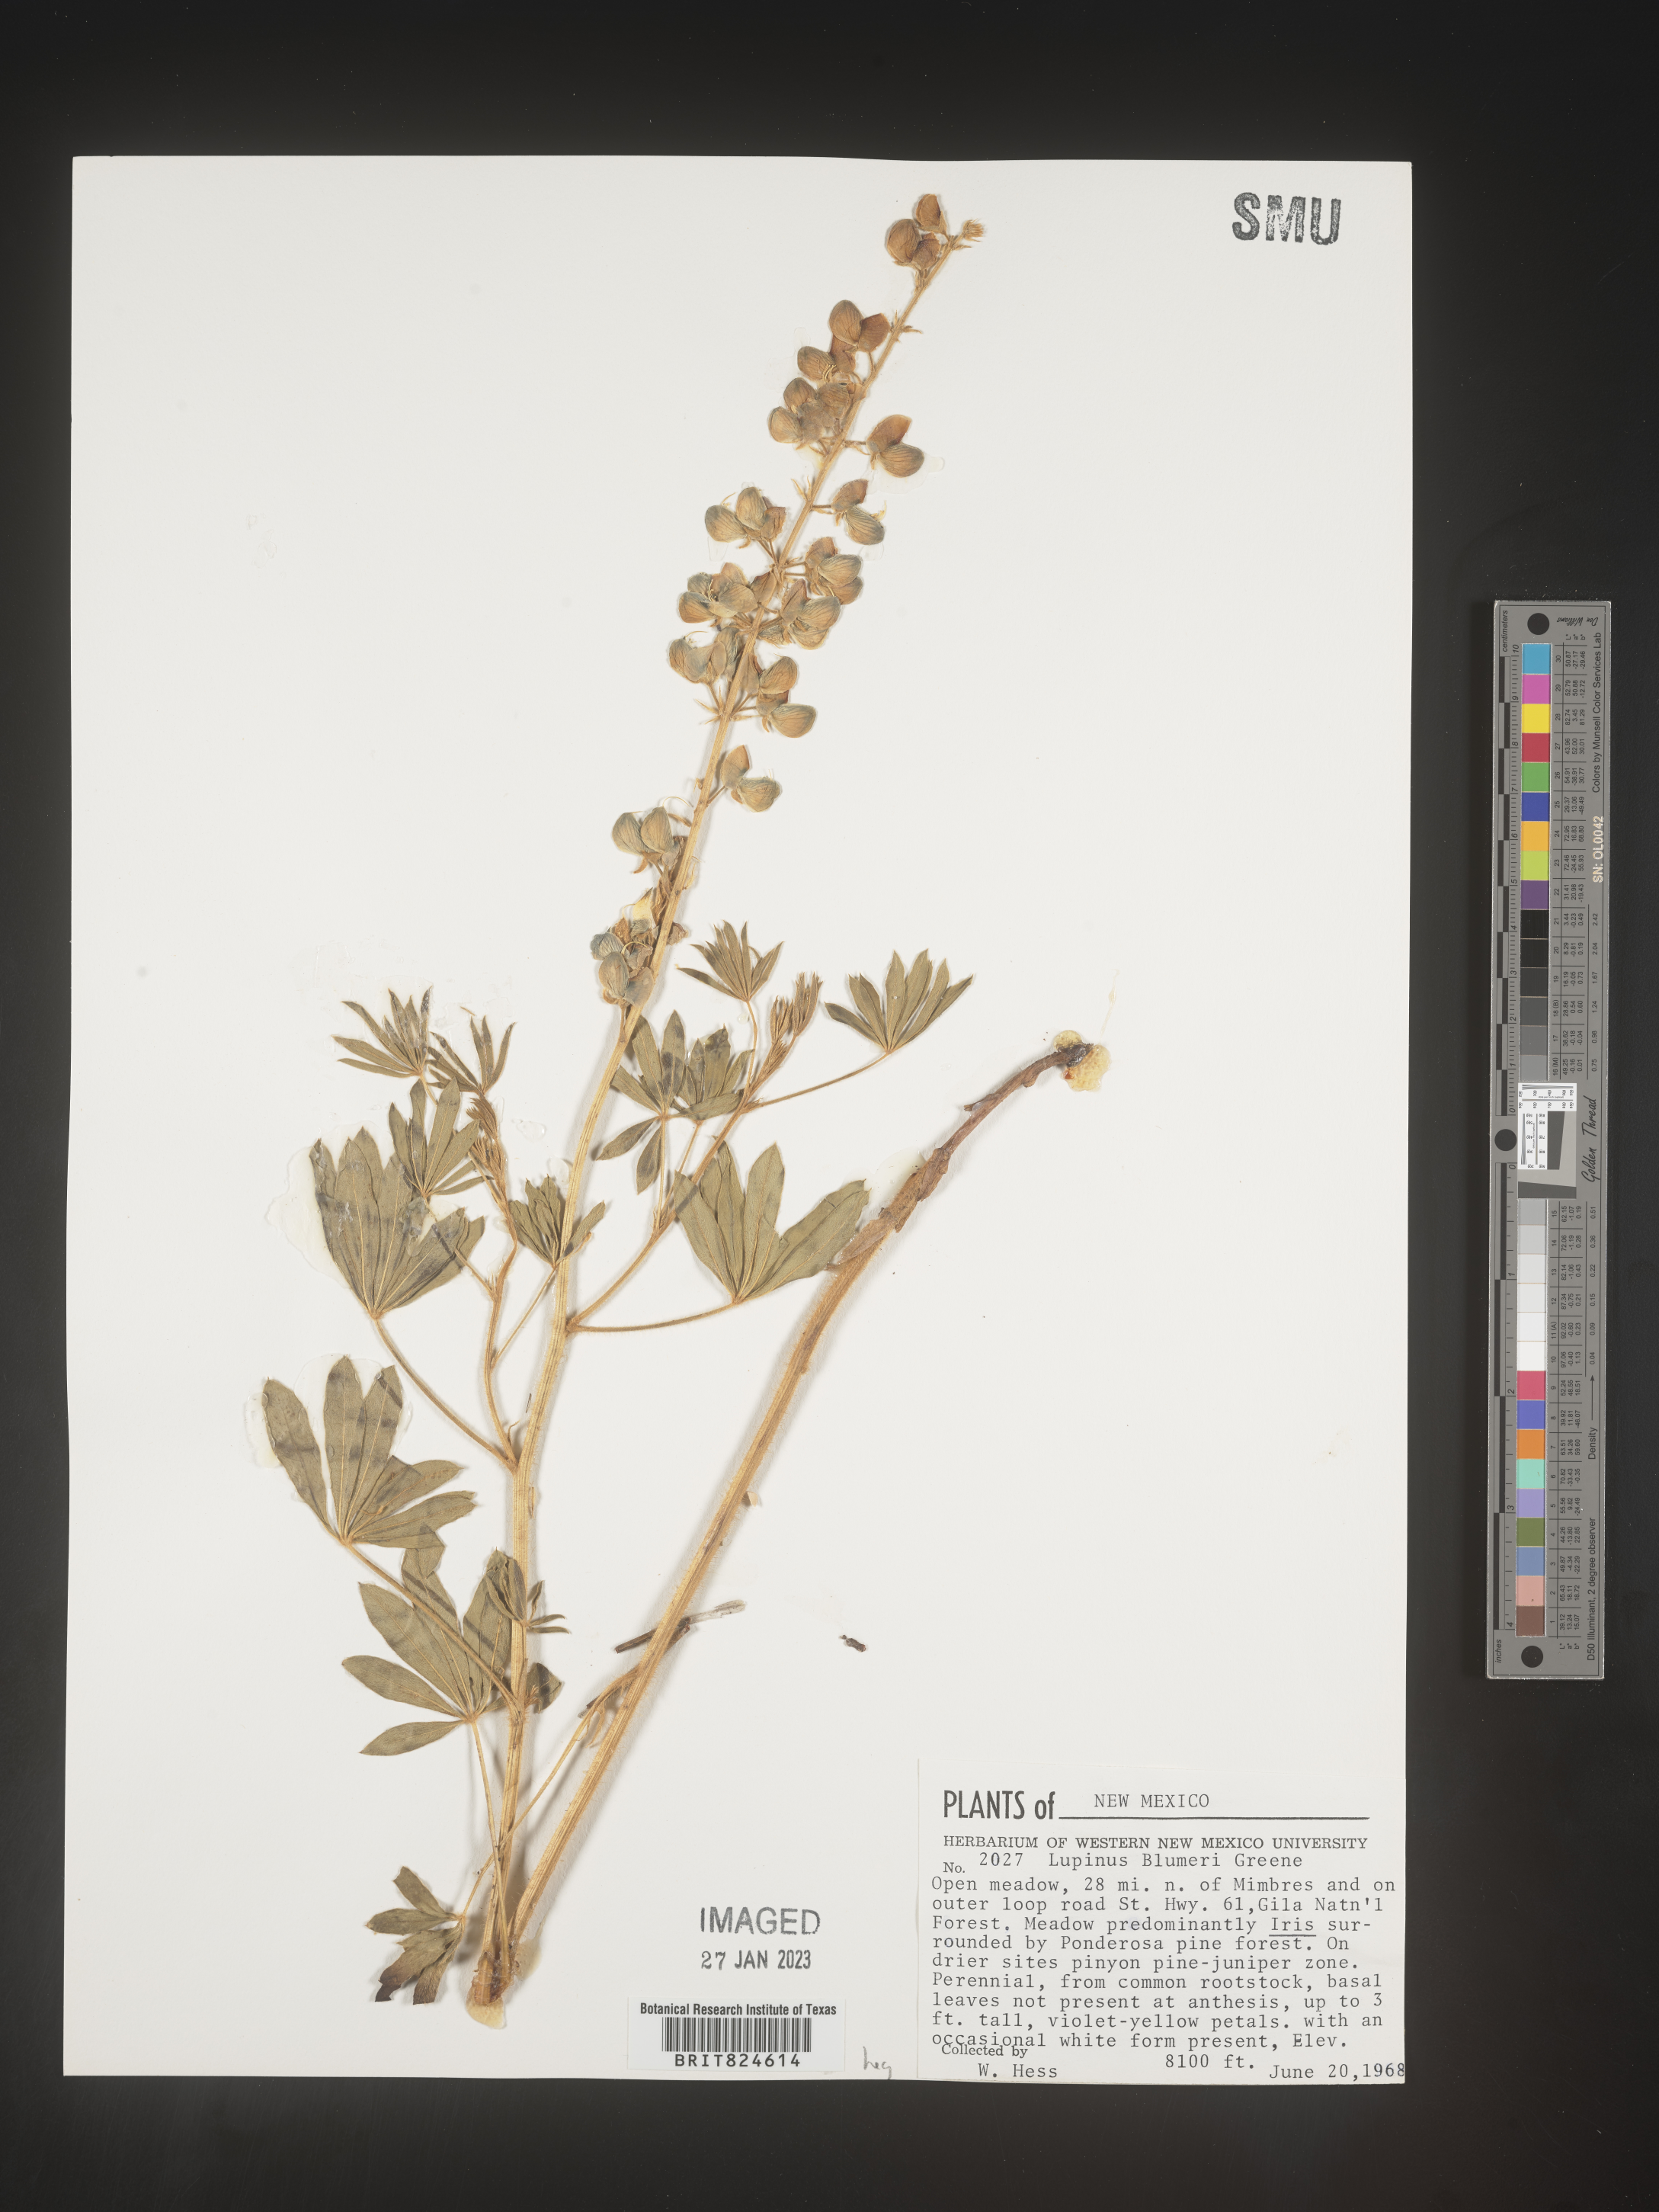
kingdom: Plantae
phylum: Tracheophyta
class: Magnoliopsida
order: Fabales
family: Fabaceae
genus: Lupinus
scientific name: Lupinus
